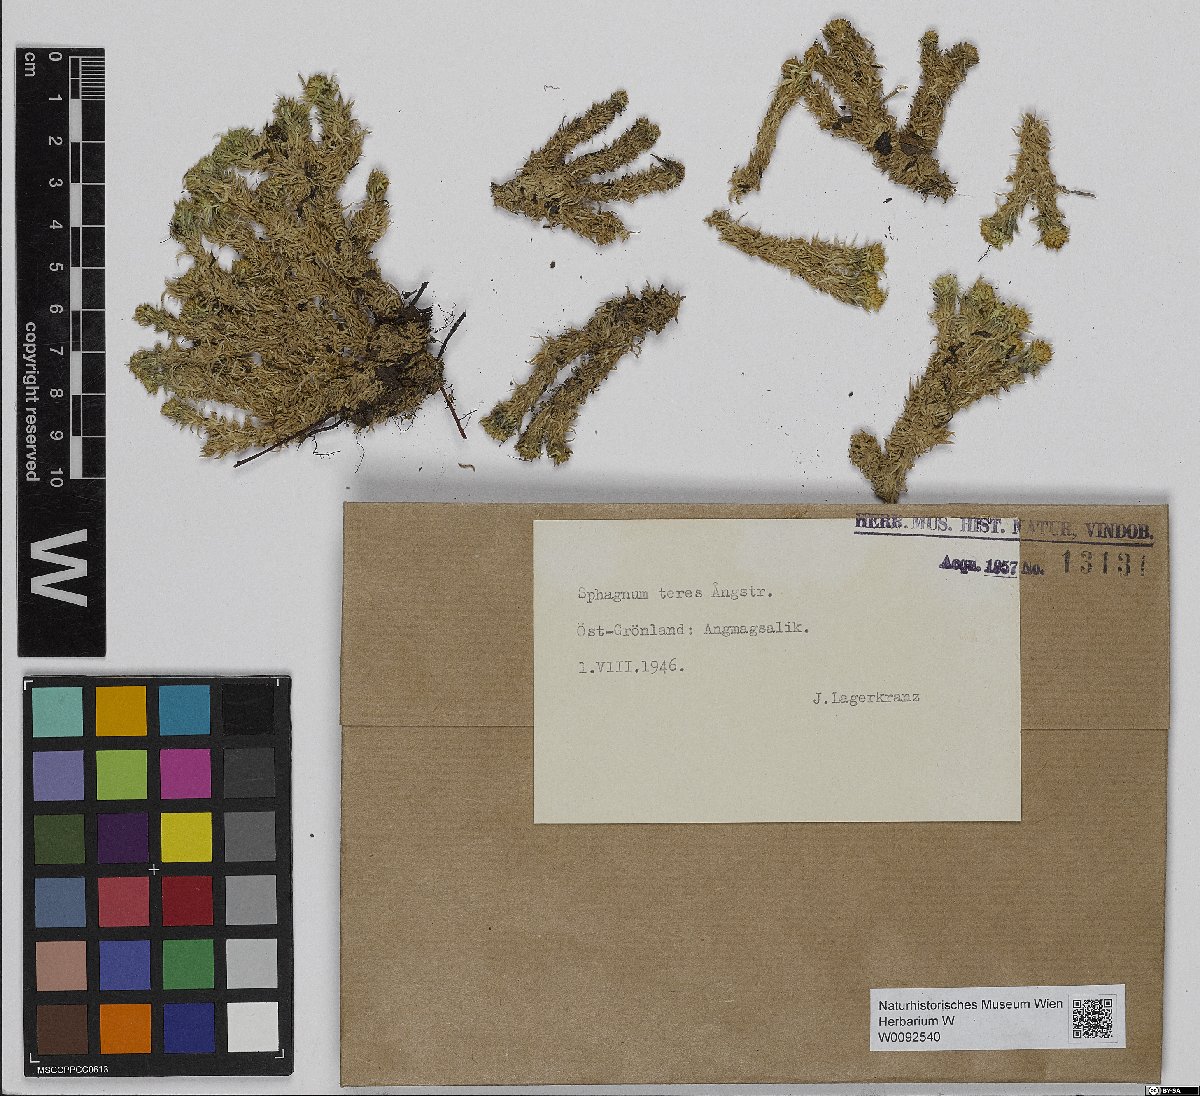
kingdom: Plantae
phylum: Bryophyta
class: Sphagnopsida
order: Sphagnales
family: Sphagnaceae
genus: Sphagnum
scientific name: Sphagnum teres
